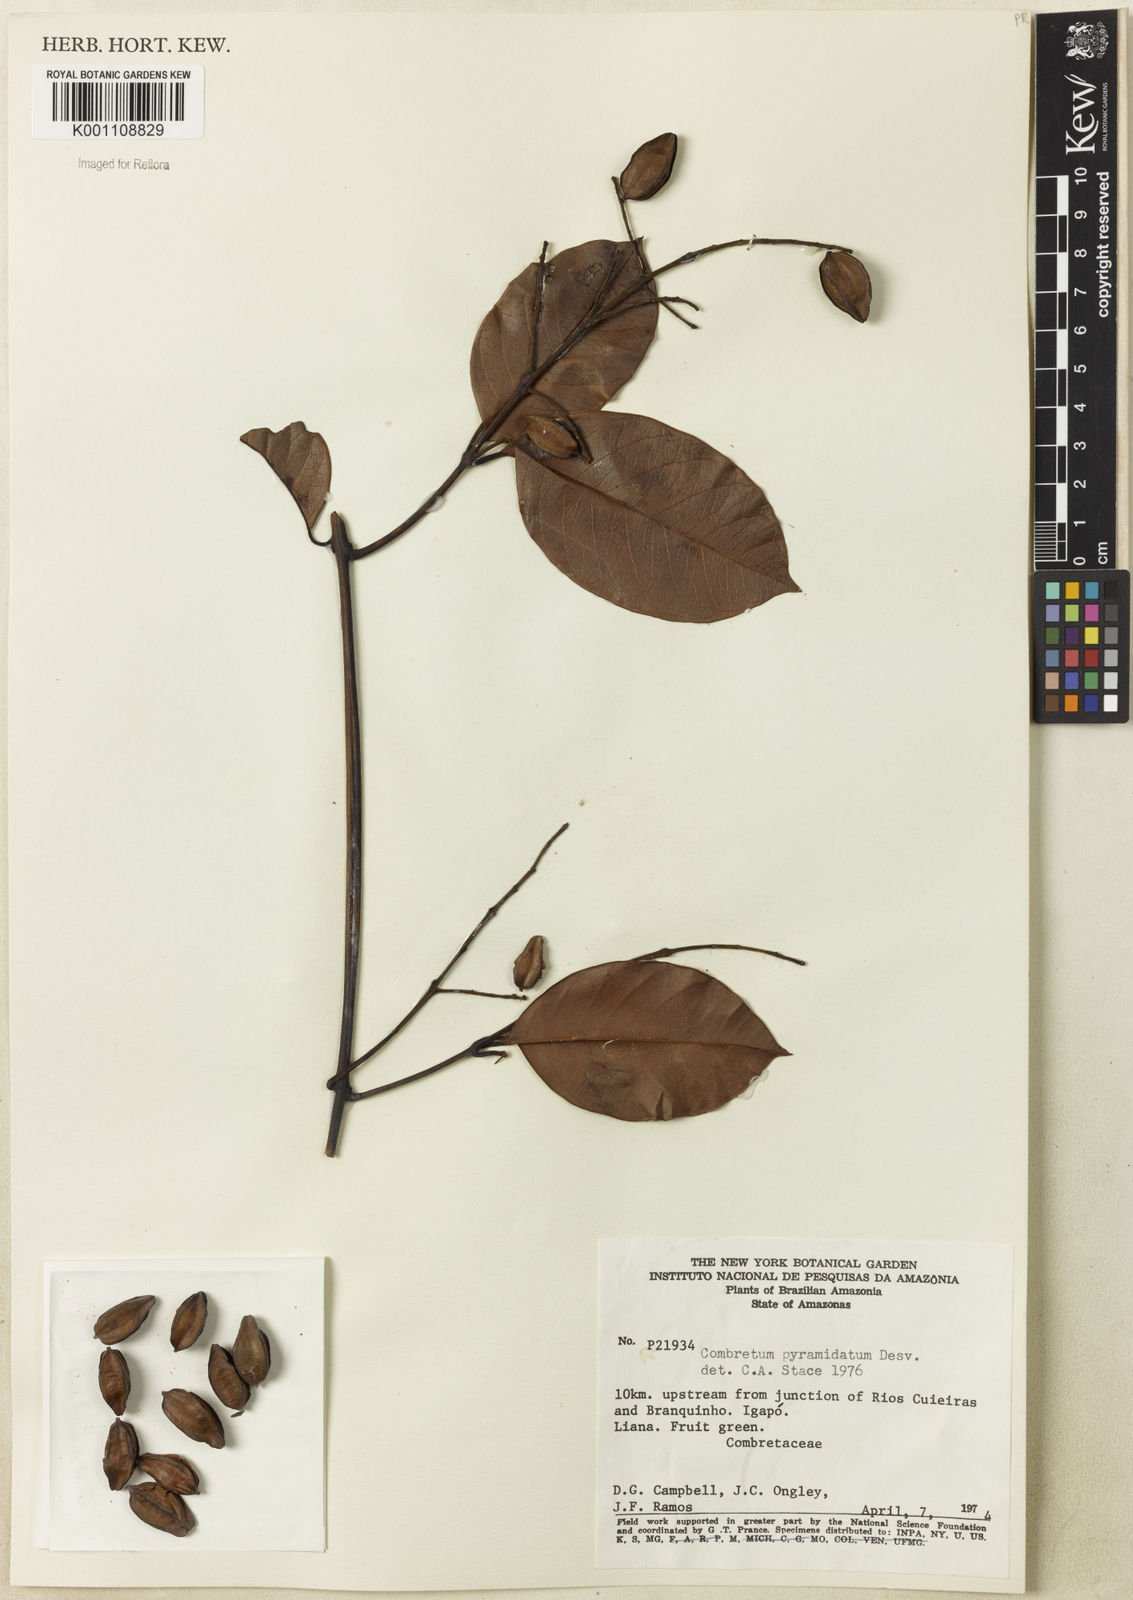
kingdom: Plantae
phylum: Tracheophyta
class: Magnoliopsida
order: Myrtales
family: Combretaceae
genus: Combretum
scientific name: Combretum pyramidatum
